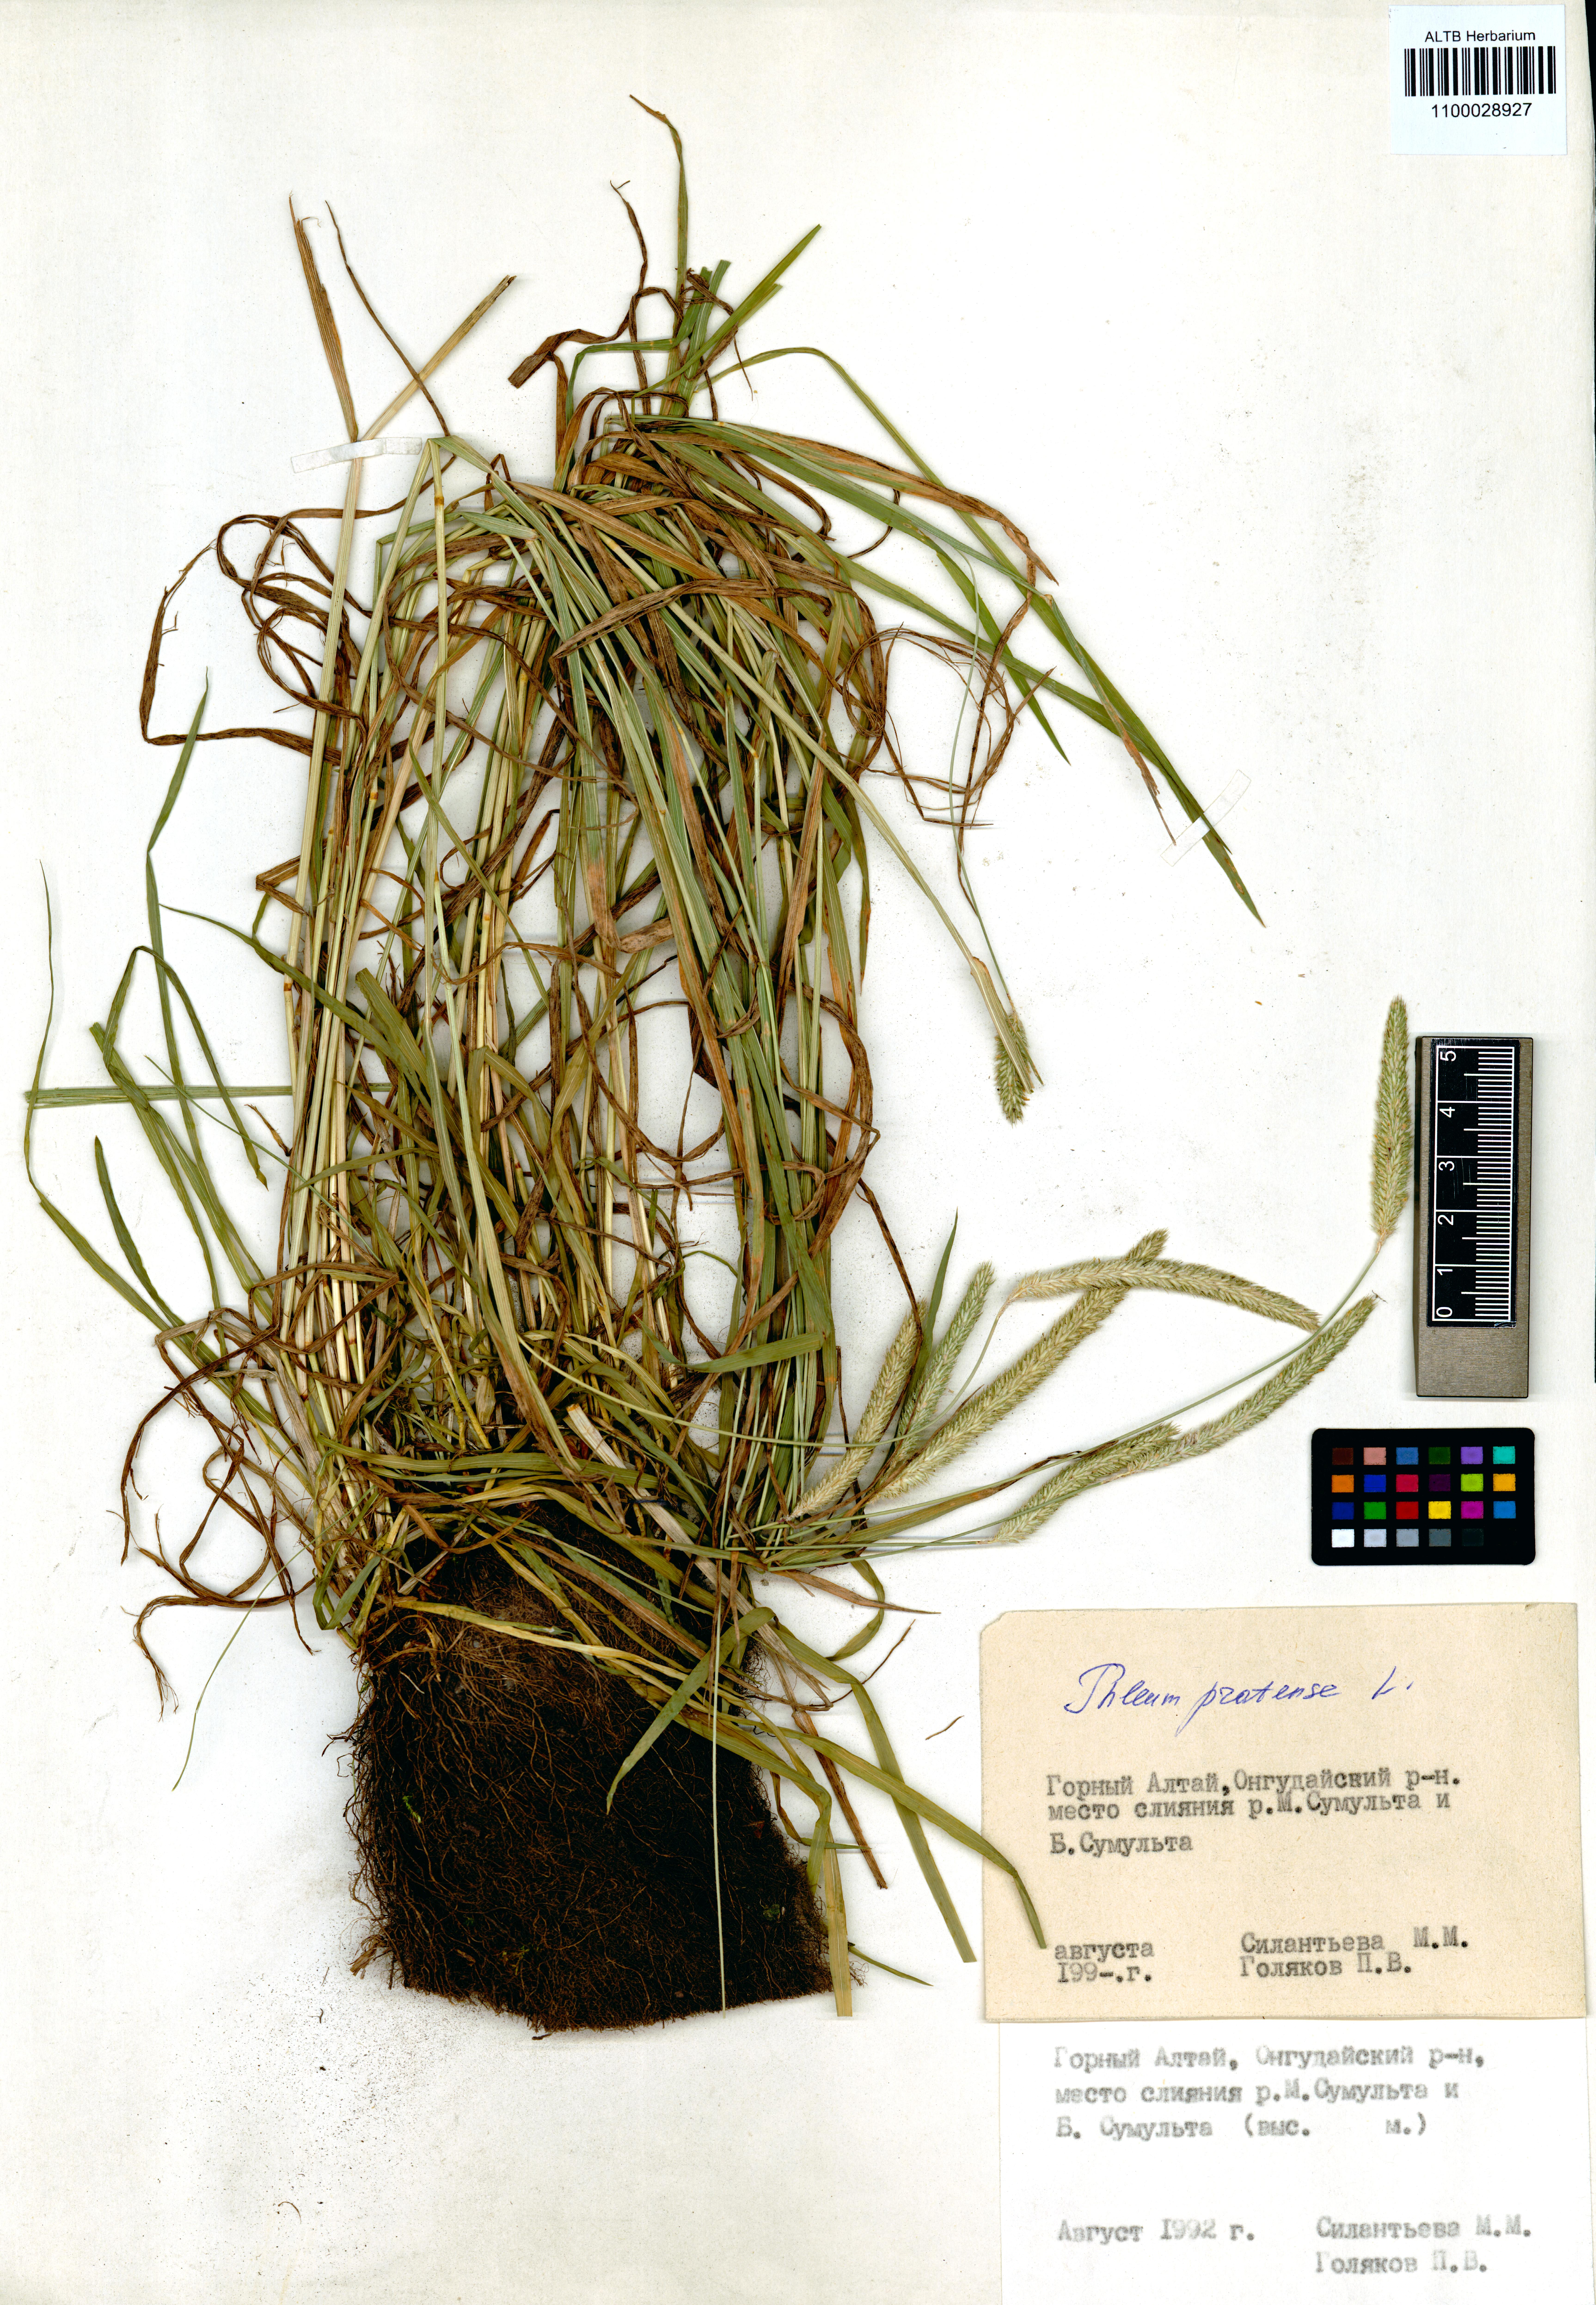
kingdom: Plantae
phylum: Tracheophyta
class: Liliopsida
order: Poales
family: Poaceae
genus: Phleum
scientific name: Phleum pratense
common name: Timothy grass
